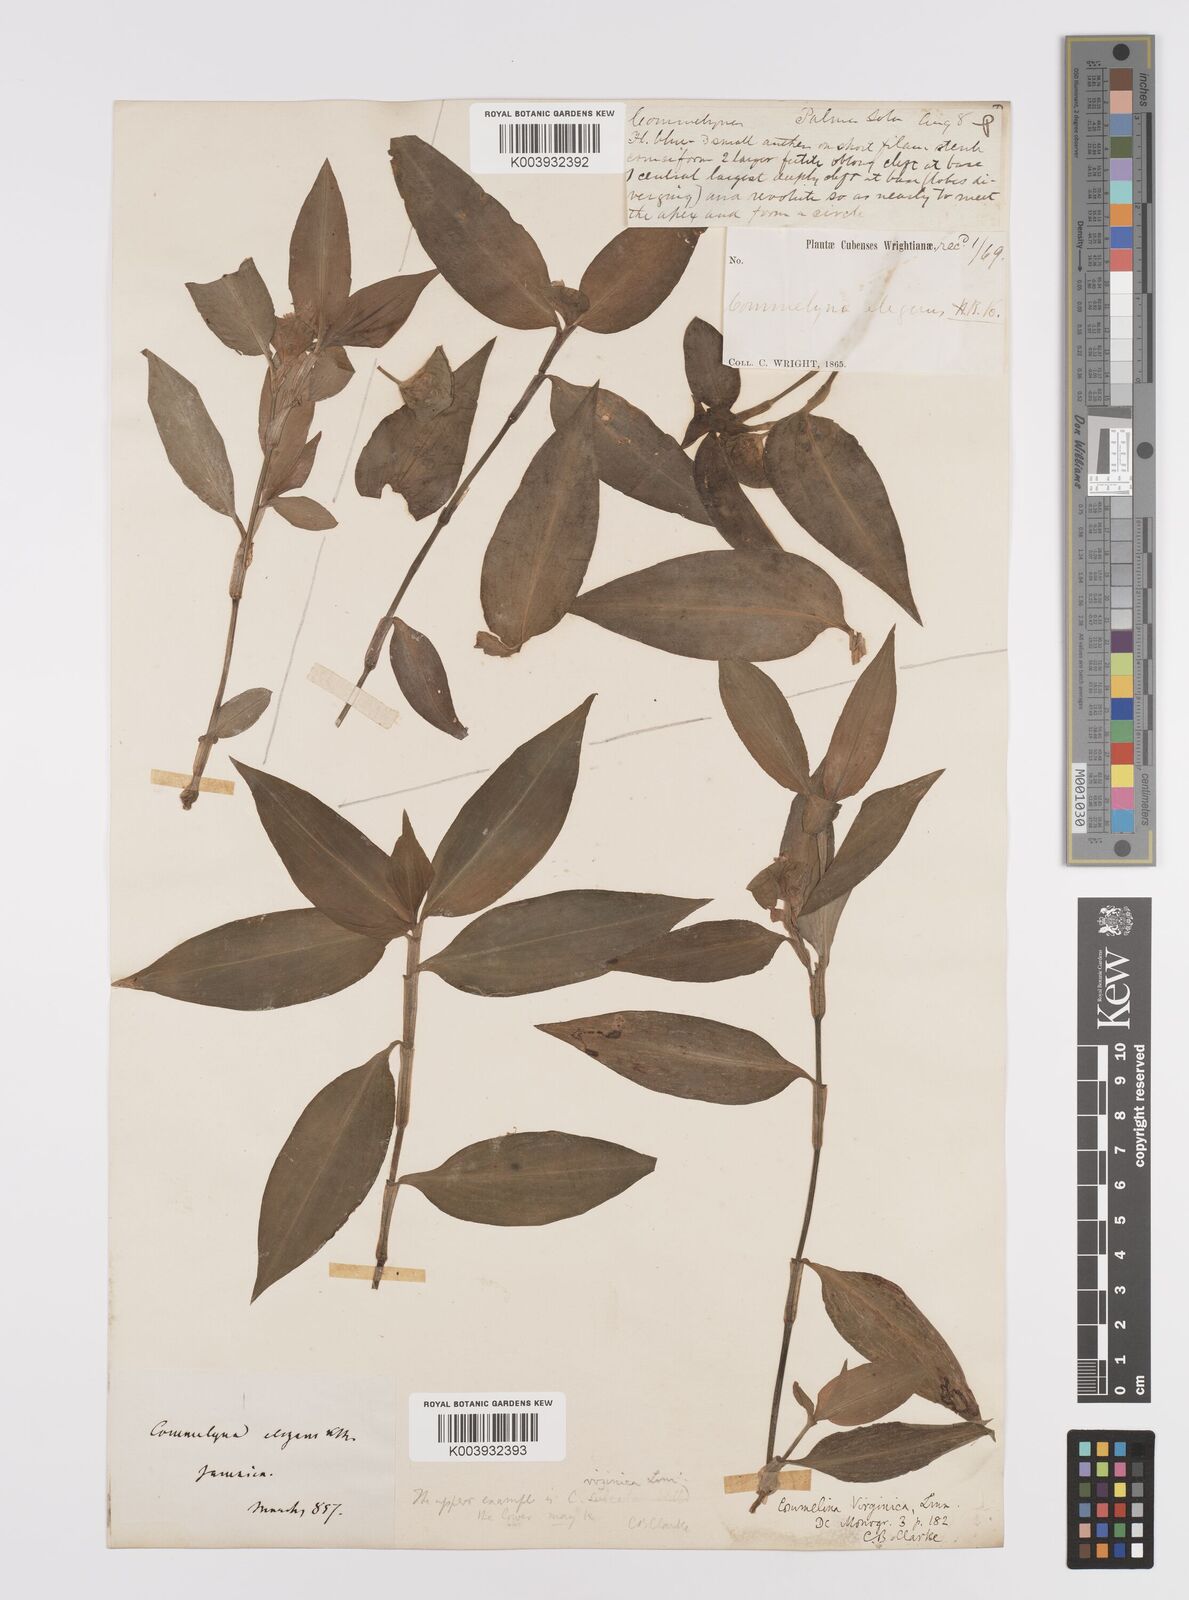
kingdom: Plantae
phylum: Tracheophyta
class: Liliopsida
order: Commelinales
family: Commelinaceae
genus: Commelina
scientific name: Commelina virginica
